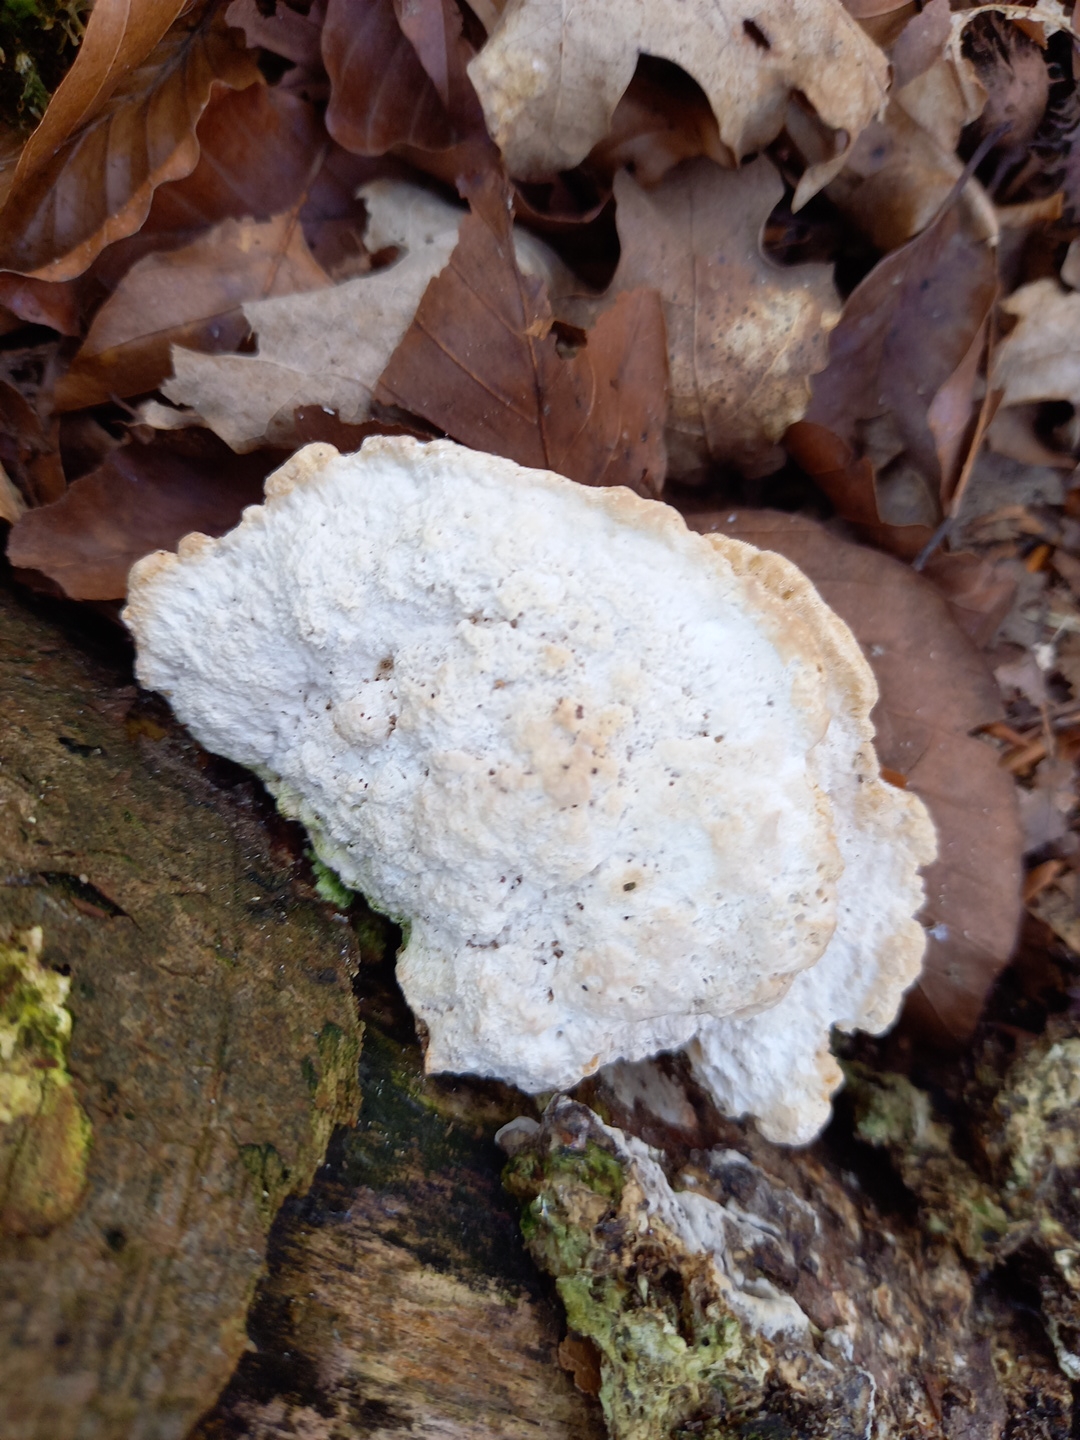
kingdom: Fungi
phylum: Basidiomycota
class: Agaricomycetes
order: Polyporales
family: Polyporaceae
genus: Trametes
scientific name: Trametes gibbosa
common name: puklet læderporesvamp
